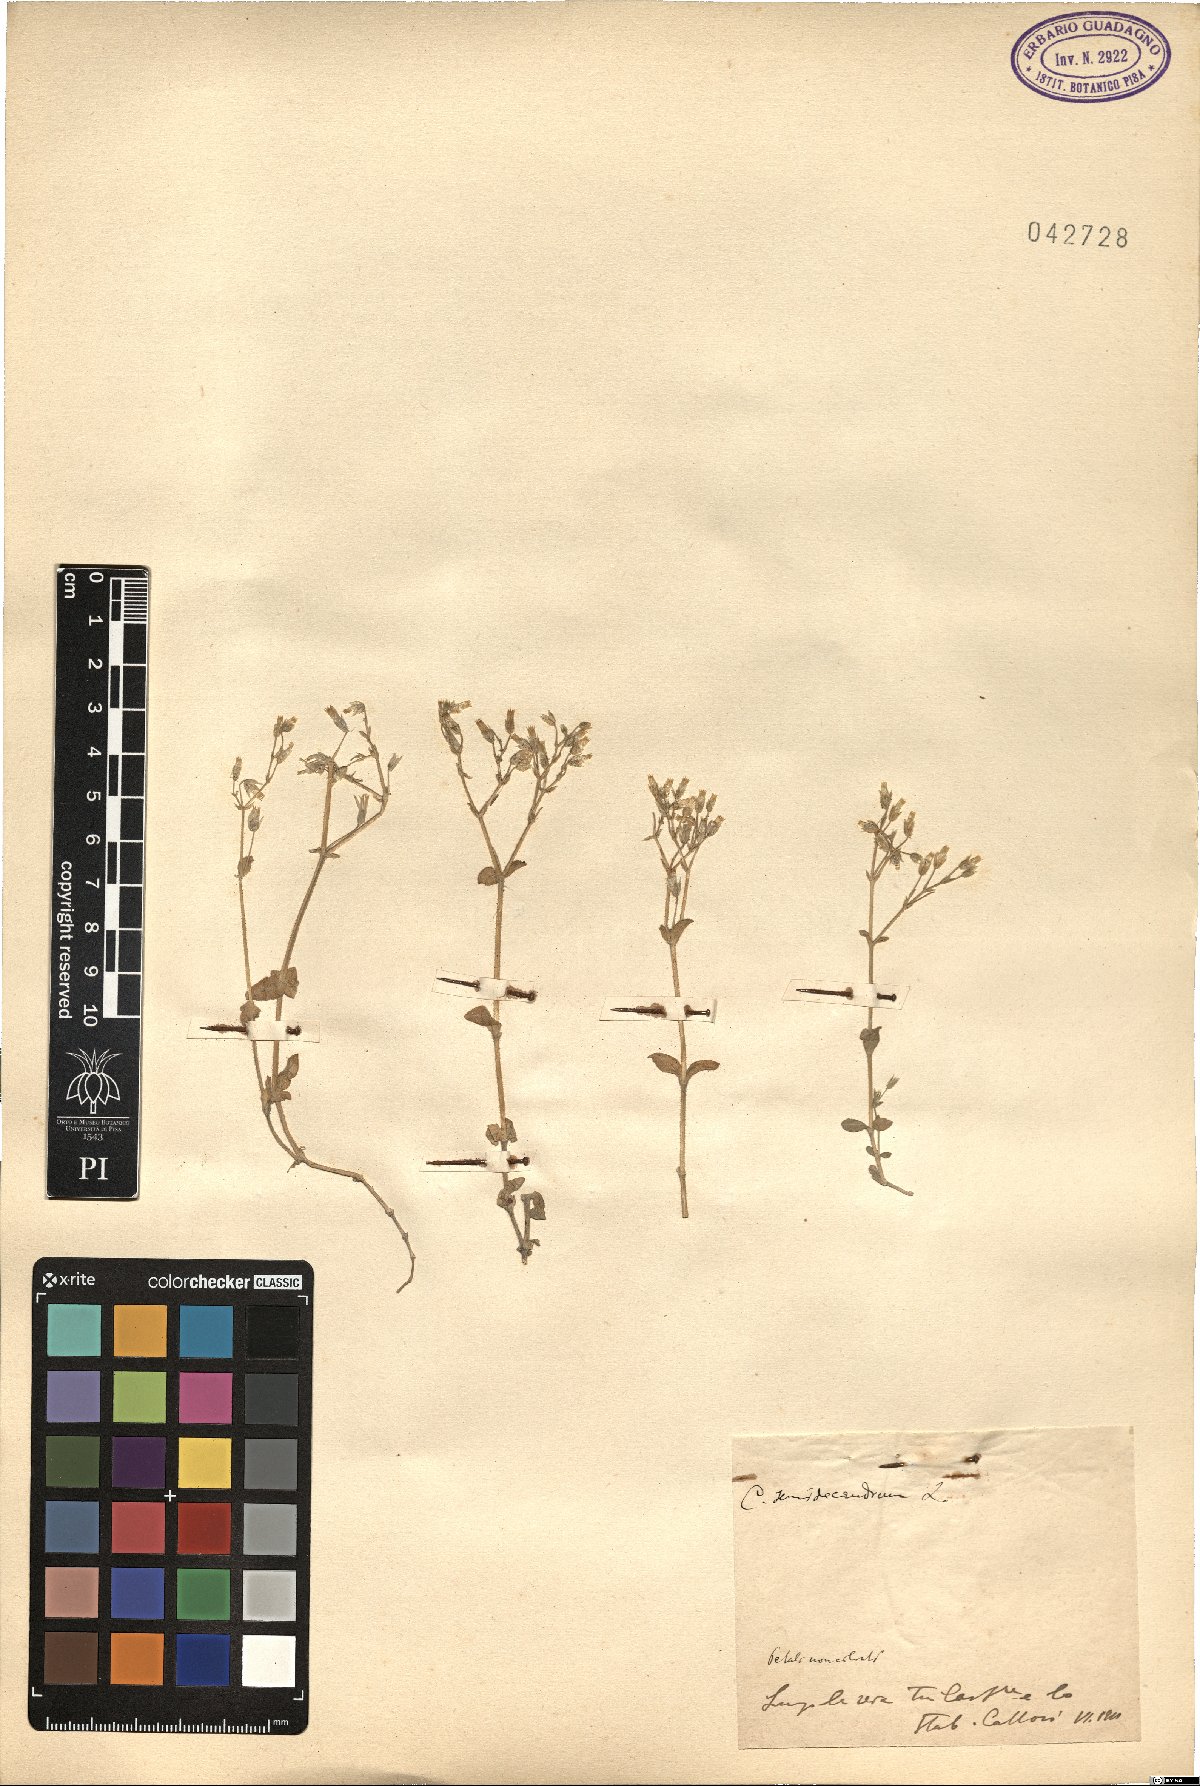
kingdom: Plantae
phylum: Tracheophyta
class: Magnoliopsida
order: Caryophyllales
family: Caryophyllaceae
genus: Cerastium
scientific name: Cerastium semidecandrum
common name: Little mouse-ear
